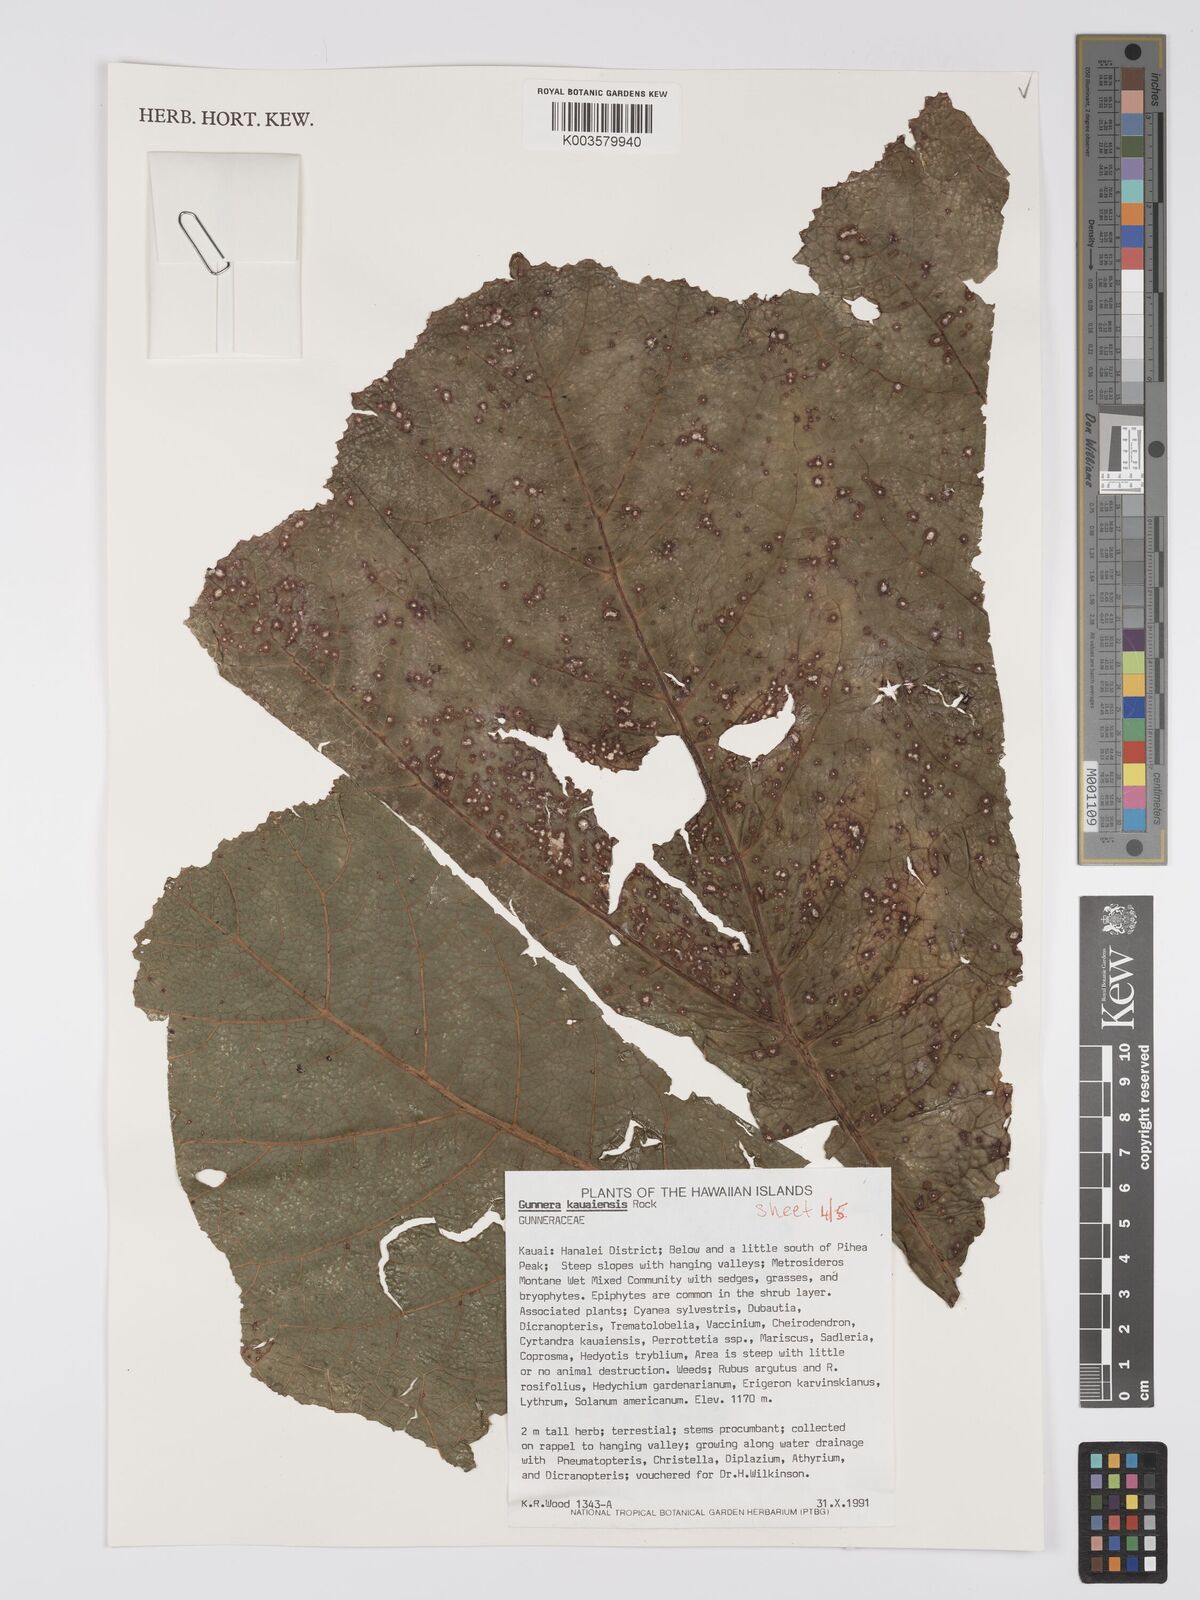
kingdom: Plantae
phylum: Tracheophyta
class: Magnoliopsida
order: Gunnerales
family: Gunneraceae
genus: Gunnera
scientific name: Gunnera kauaiensis
